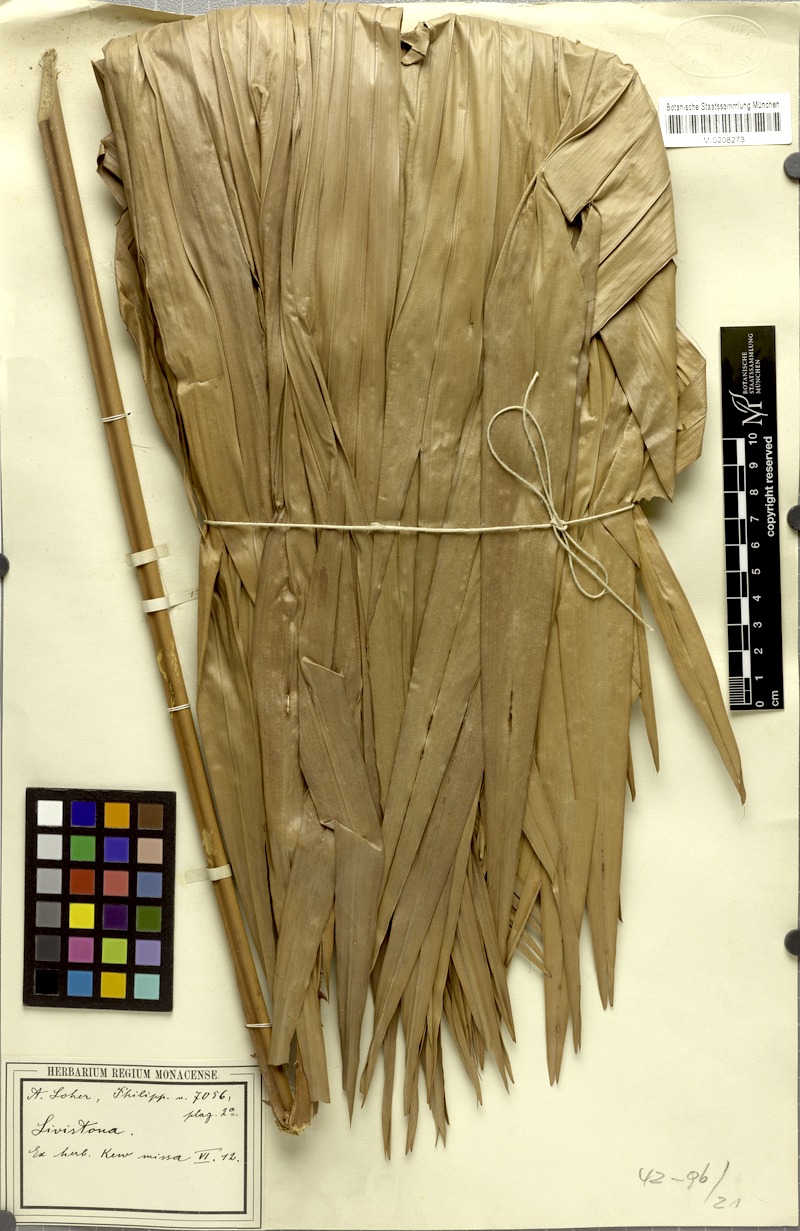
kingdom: Plantae
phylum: Tracheophyta
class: Liliopsida
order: Arecales
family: Arecaceae
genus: Livistona
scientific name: Livistona
